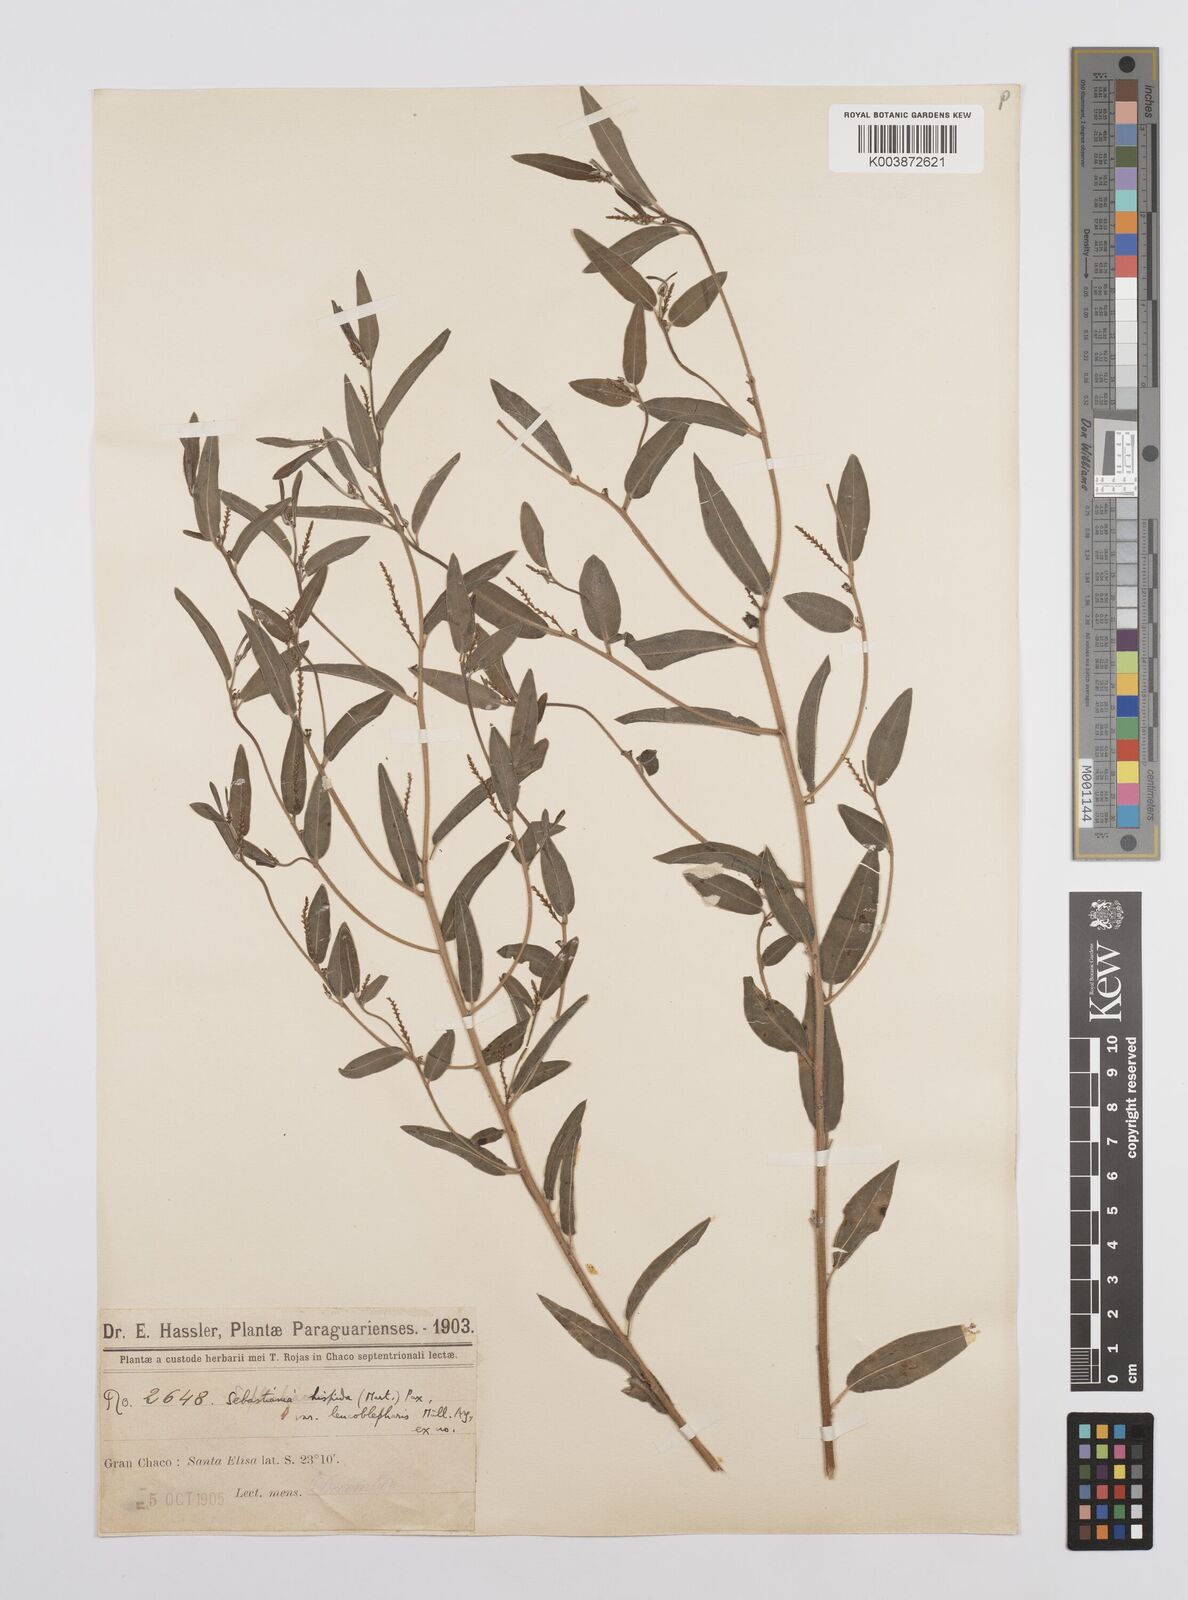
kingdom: Plantae
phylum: Tracheophyta
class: Magnoliopsida
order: Malpighiales
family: Euphorbiaceae
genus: Microstachys
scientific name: Microstachys hispida
